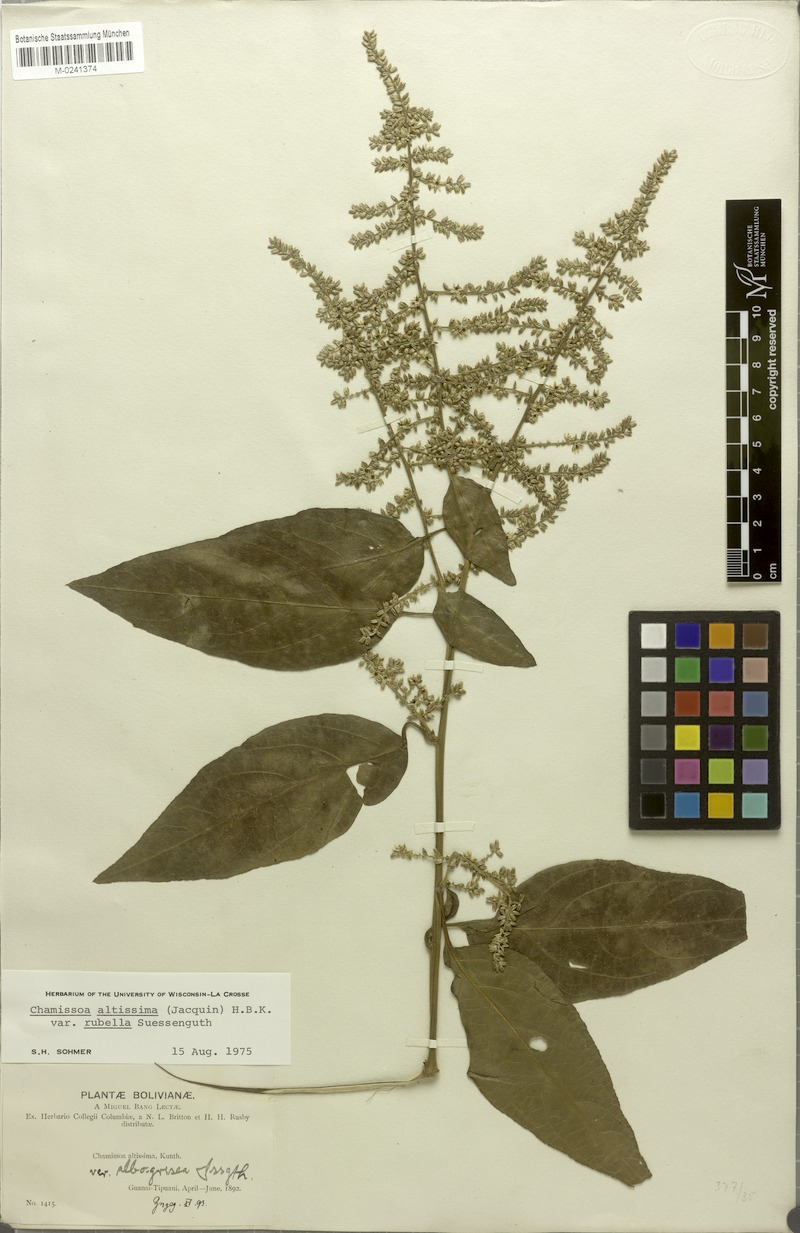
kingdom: Plantae
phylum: Tracheophyta
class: Magnoliopsida
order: Caryophyllales
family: Amaranthaceae
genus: Chamissoa
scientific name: Chamissoa altissima
